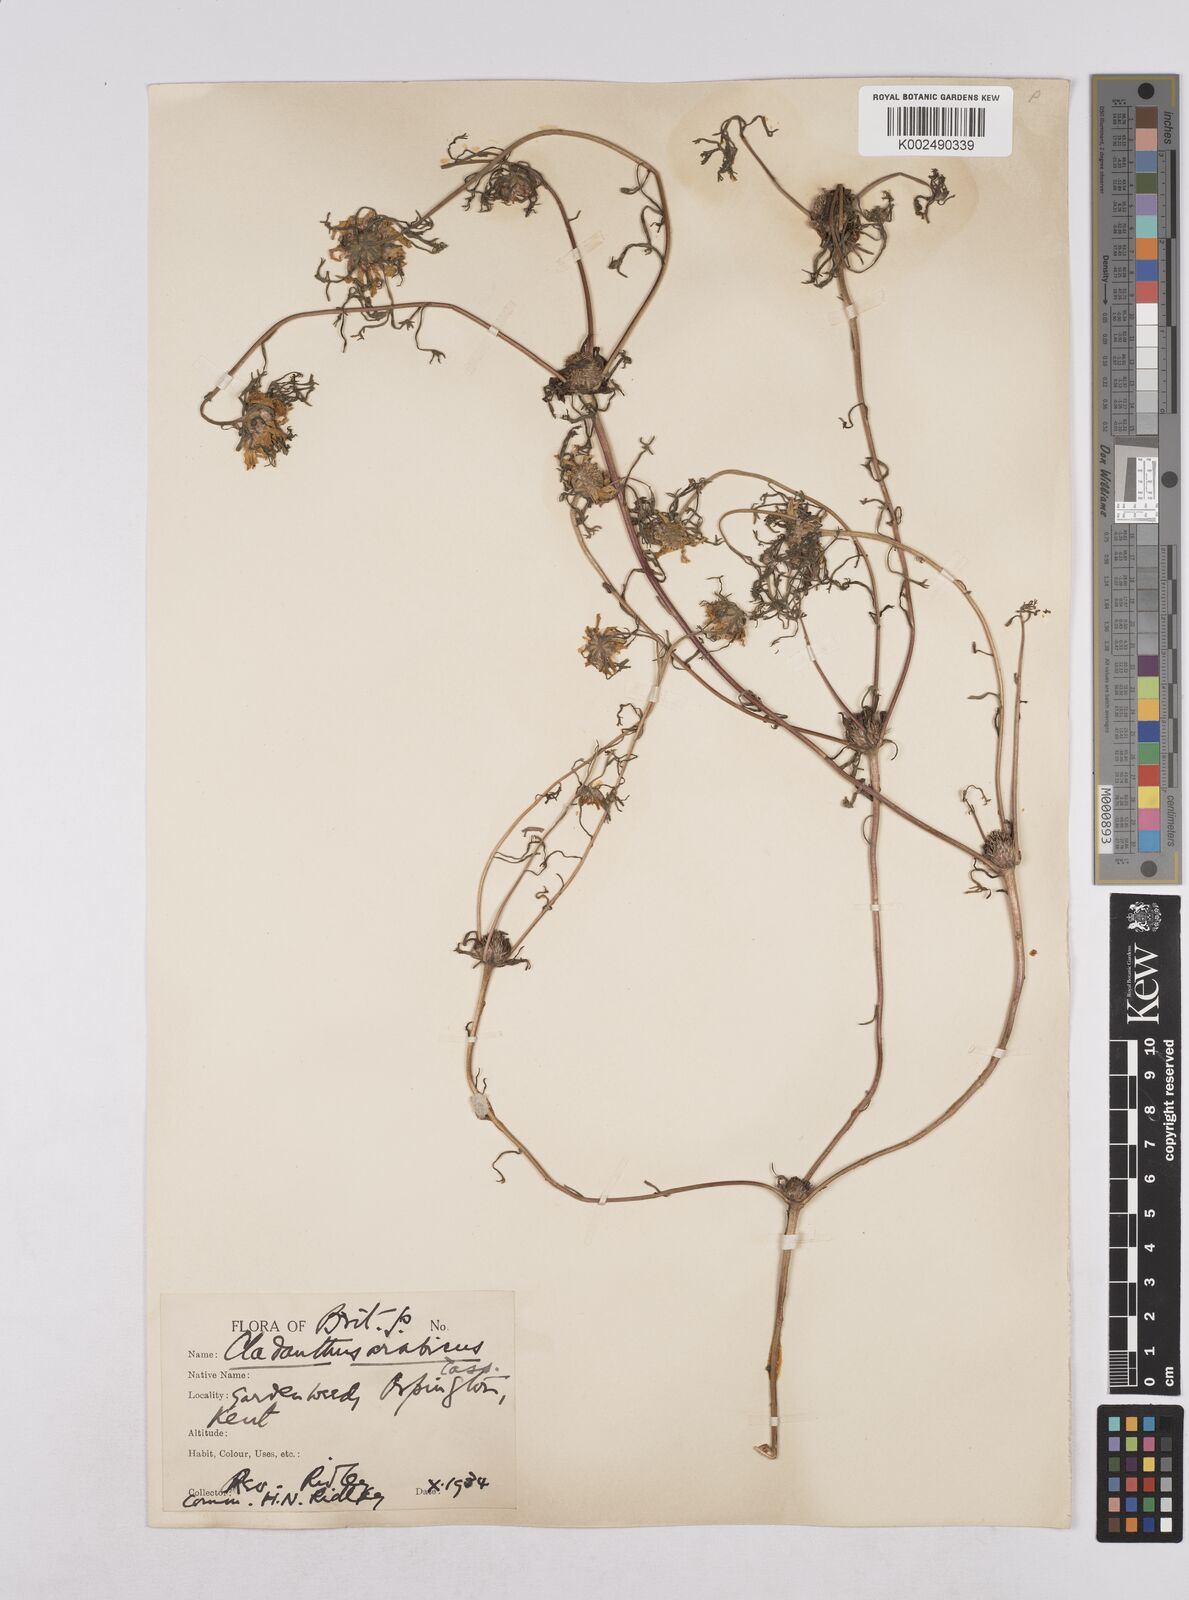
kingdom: Plantae
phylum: Tracheophyta
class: Magnoliopsida
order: Asterales
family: Asteraceae
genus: Cladanthus
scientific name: Cladanthus arabicus
